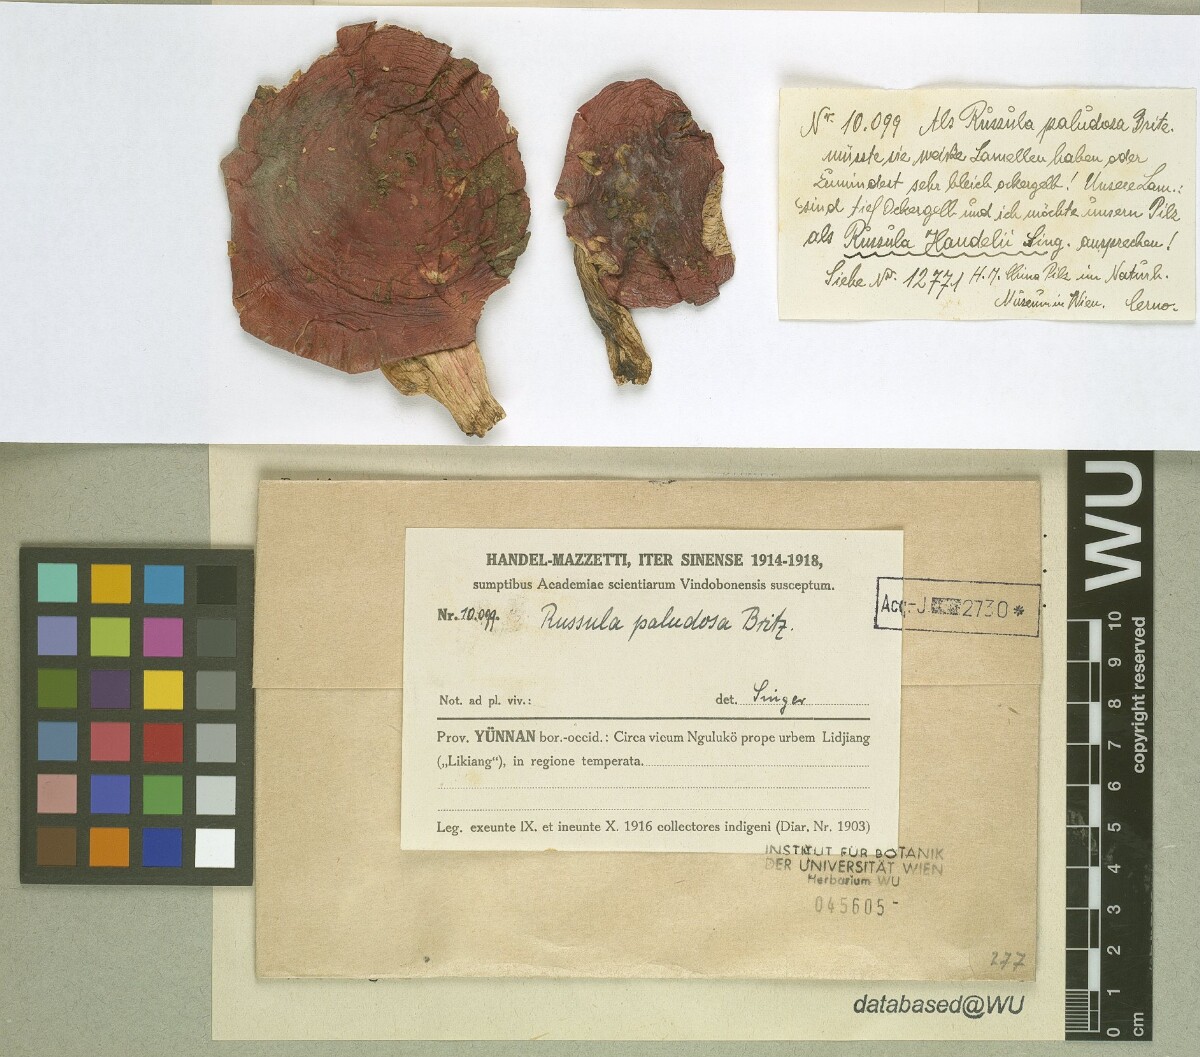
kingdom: Fungi
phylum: Basidiomycota
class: Agaricomycetes
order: Russulales
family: Russulaceae
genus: Russula
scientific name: Russula paludosa
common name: Hintapink
